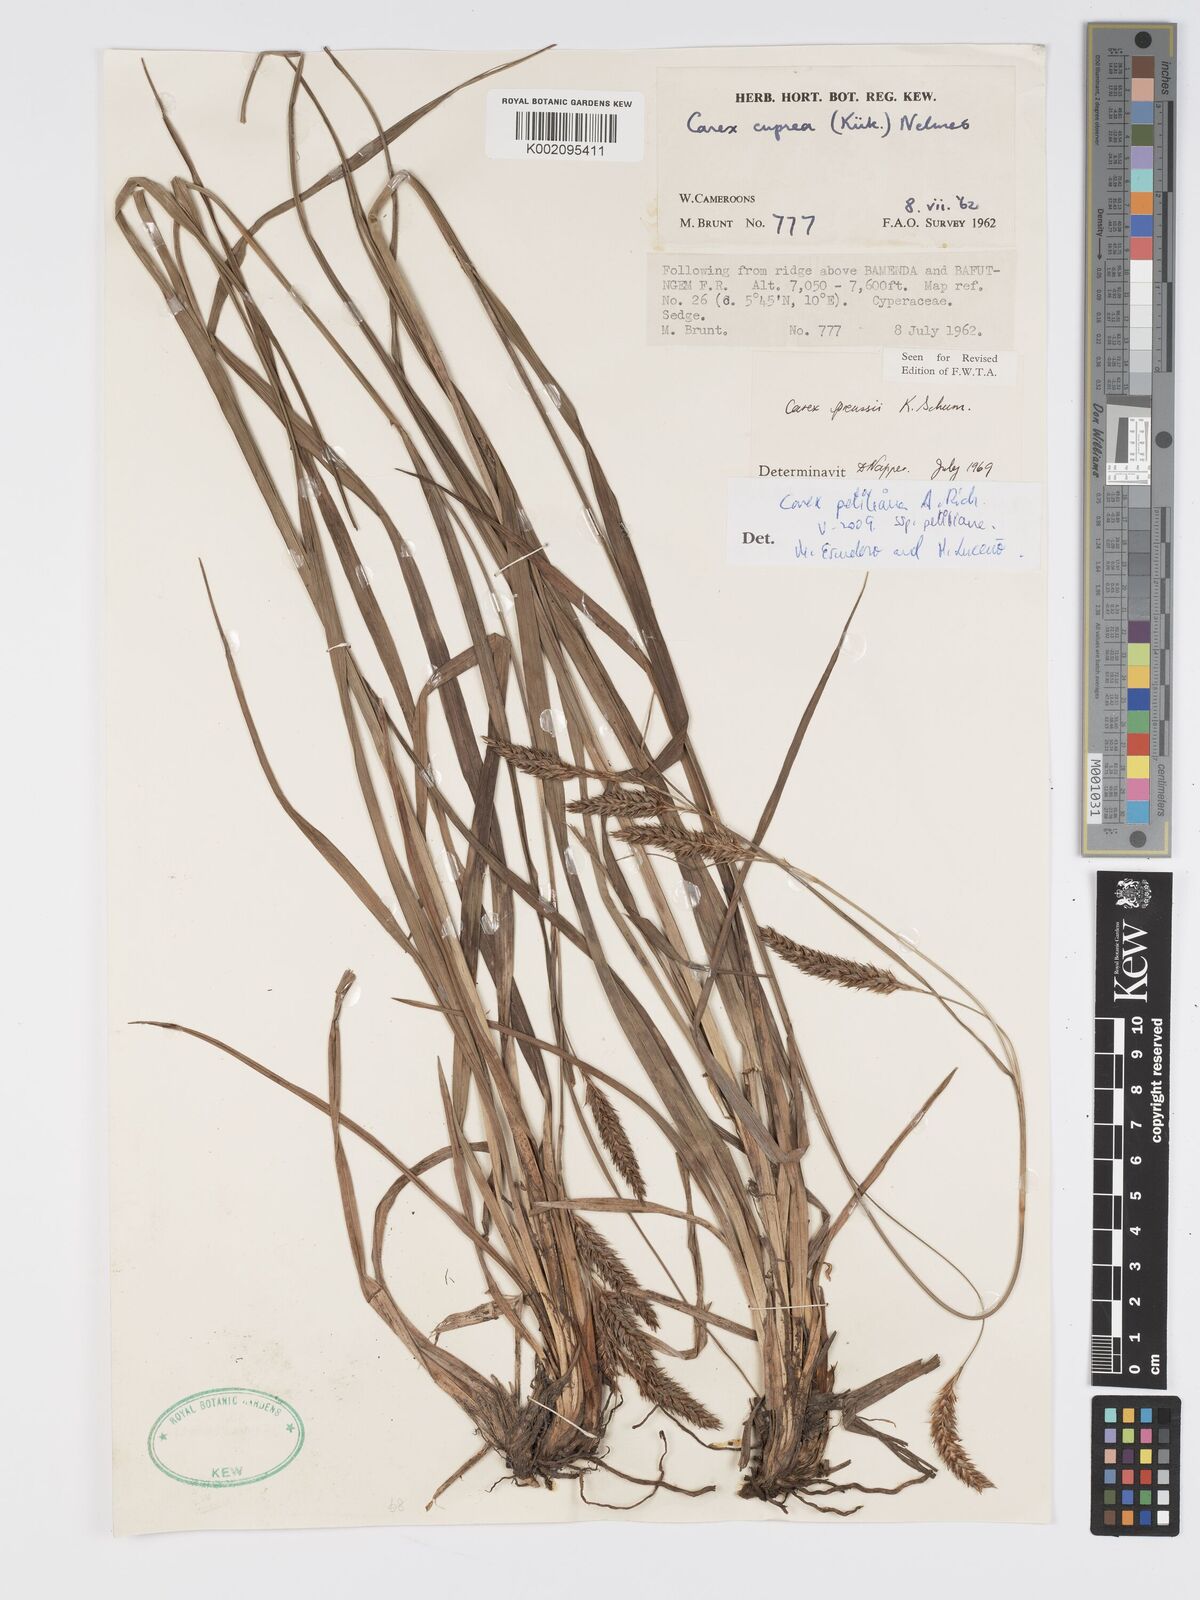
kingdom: Plantae
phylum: Tracheophyta
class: Liliopsida
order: Poales
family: Cyperaceae
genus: Carex
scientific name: Carex petitiana
